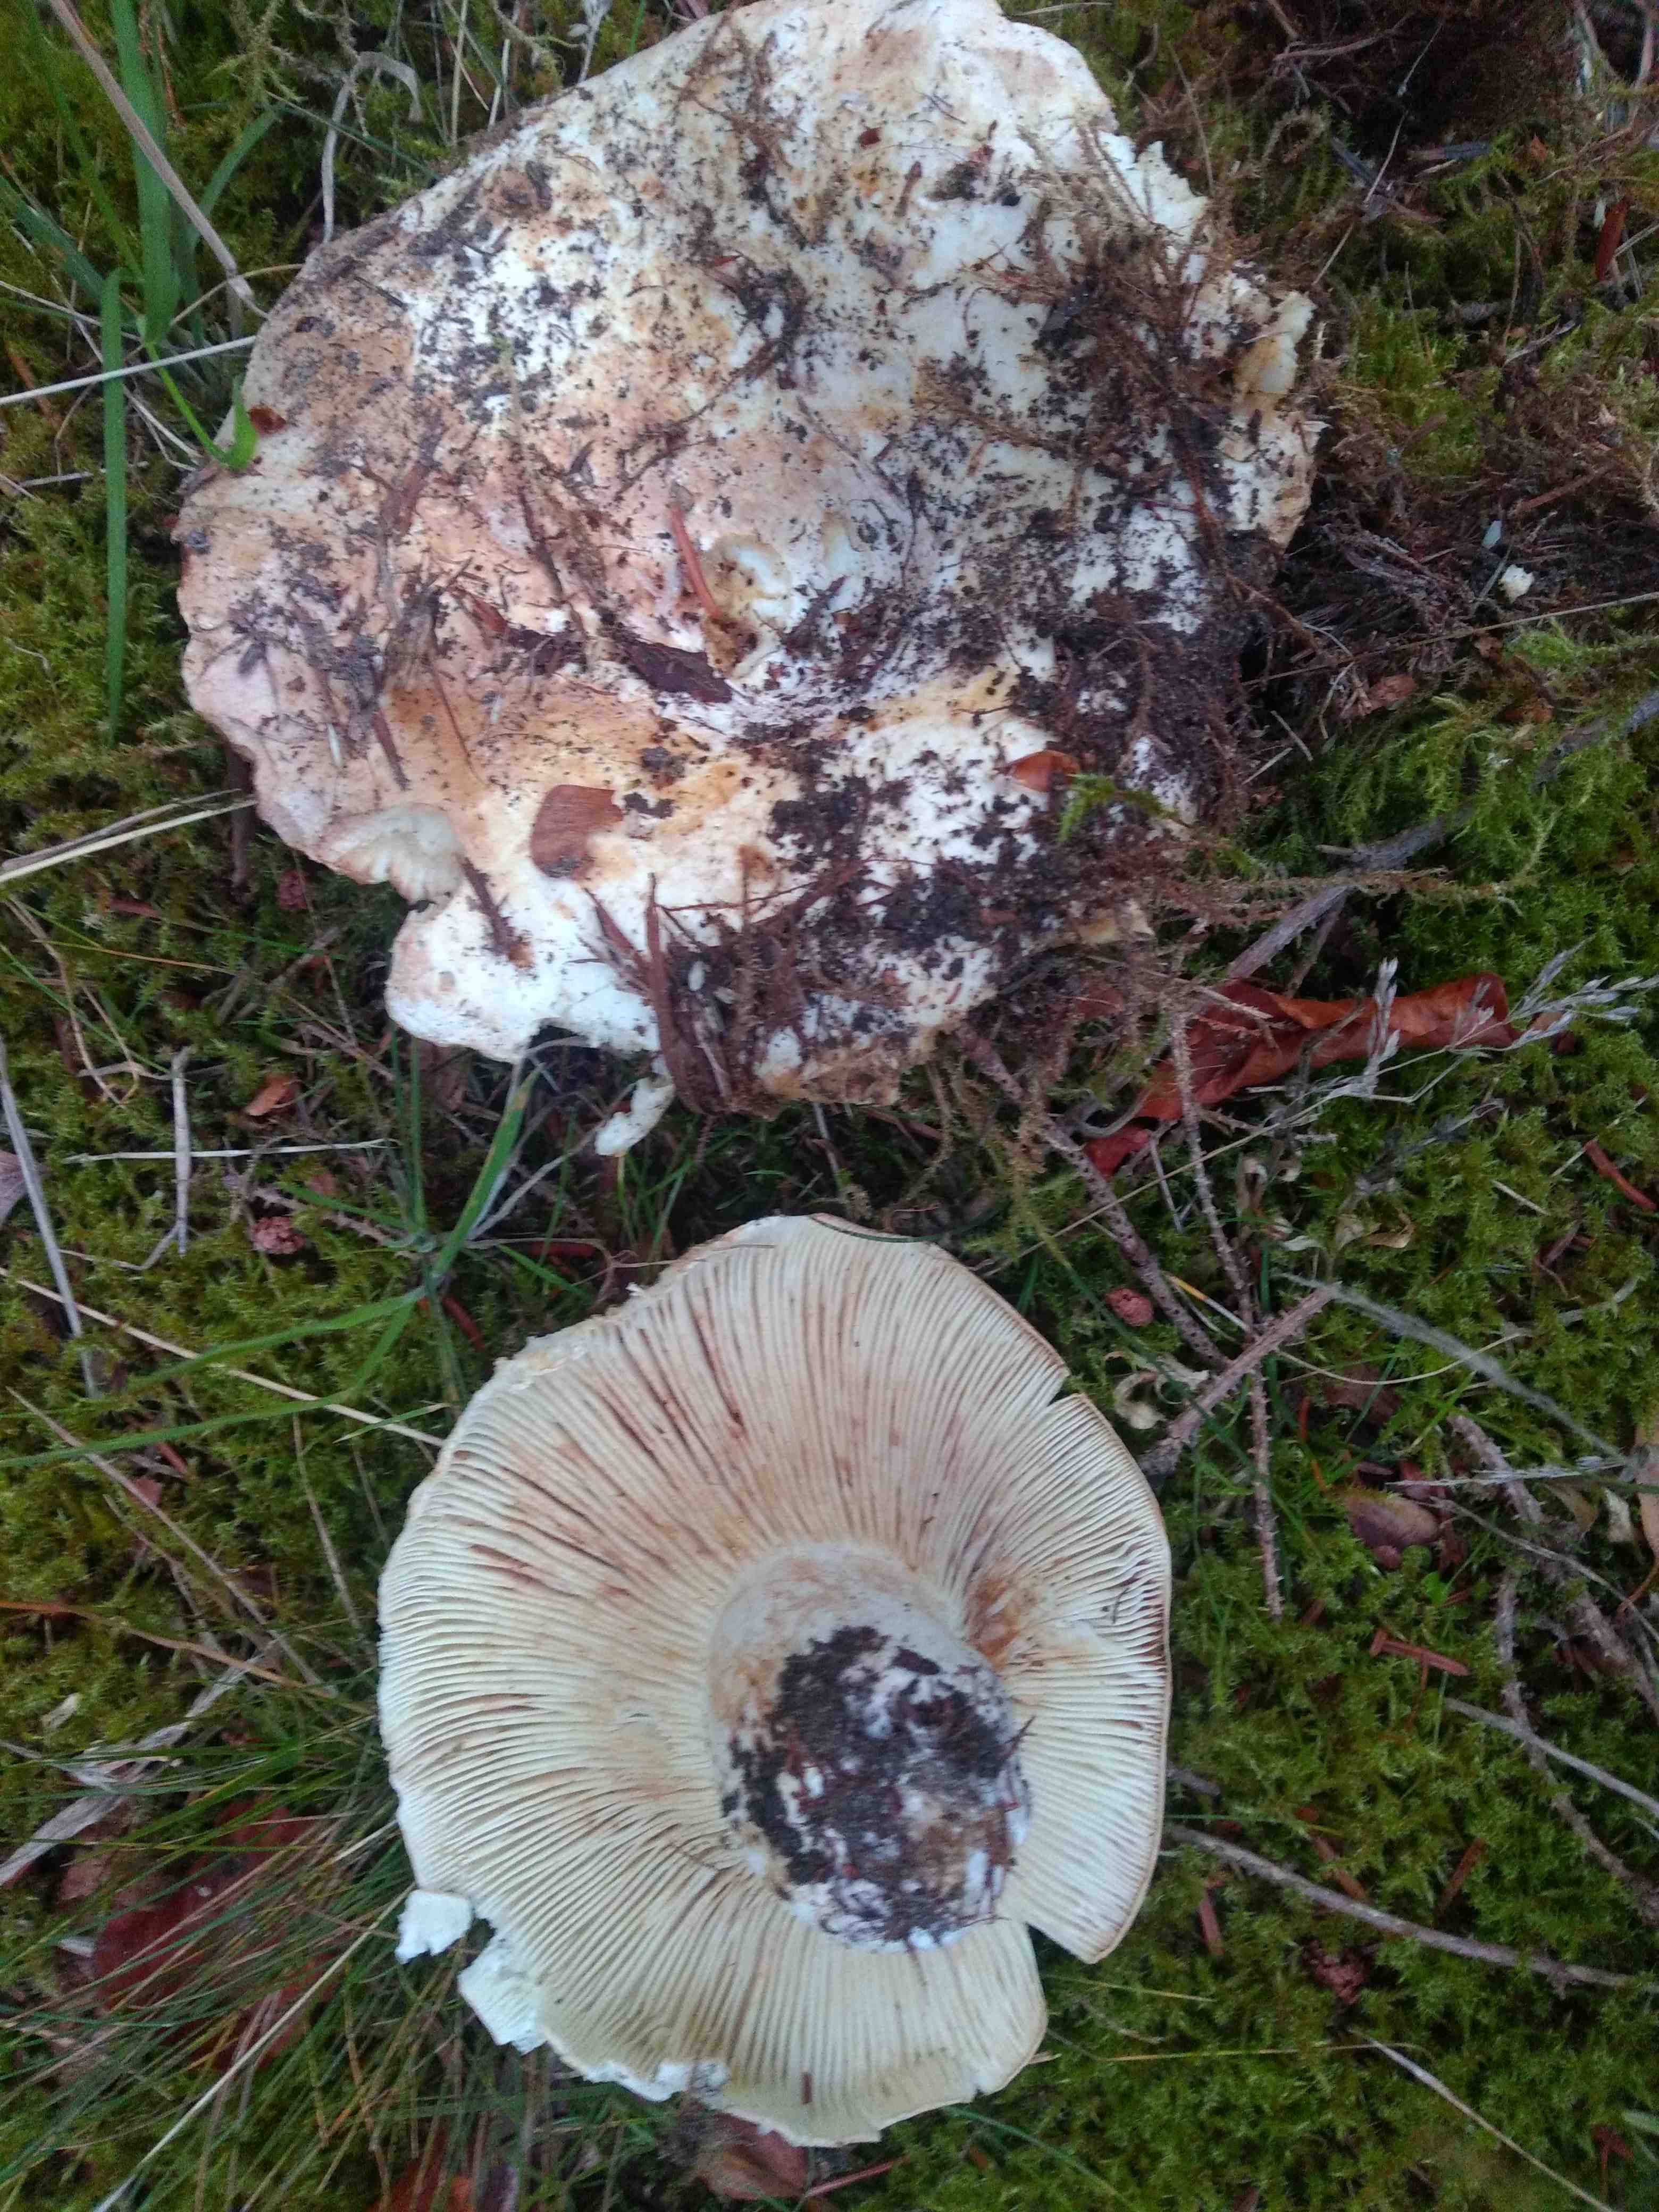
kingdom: Fungi
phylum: Basidiomycota
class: Agaricomycetes
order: Russulales
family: Russulaceae
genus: Russula
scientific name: Russula delica
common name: almindelig tragt-skørhat
